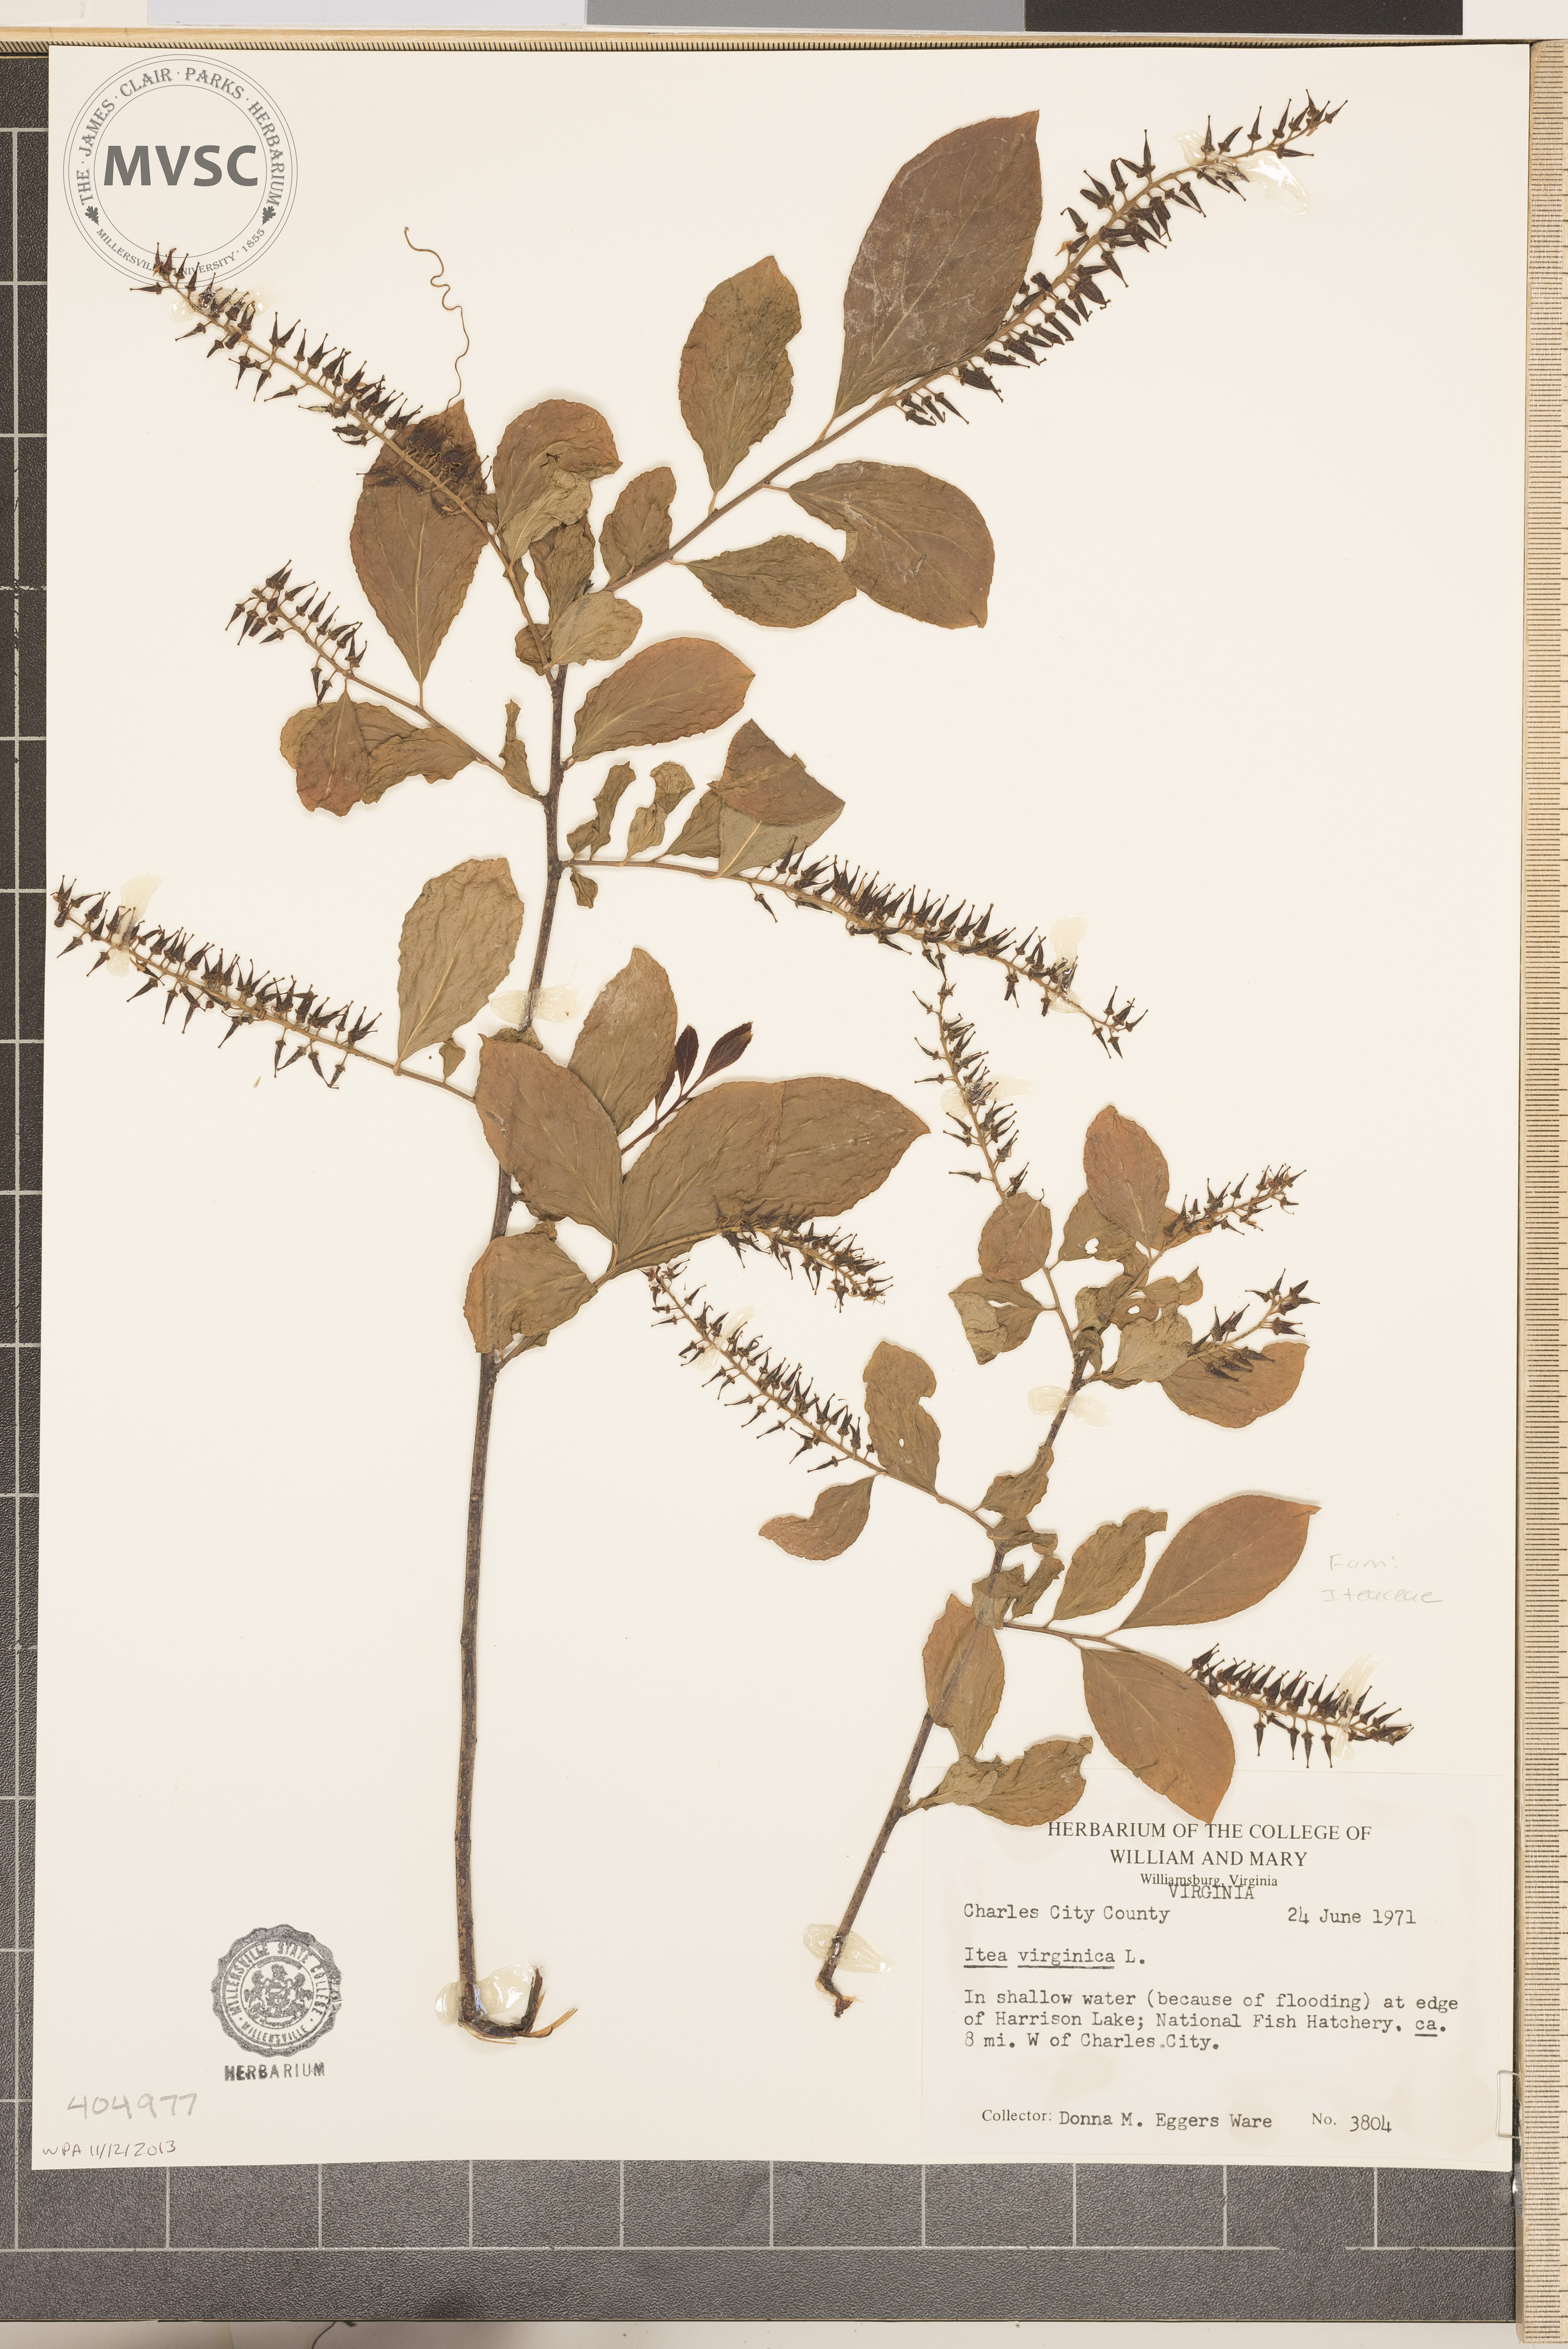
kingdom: Plantae
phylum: Tracheophyta
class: Magnoliopsida
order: Saxifragales
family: Iteaceae
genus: Itea
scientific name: Itea virginica
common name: Sweetspire
